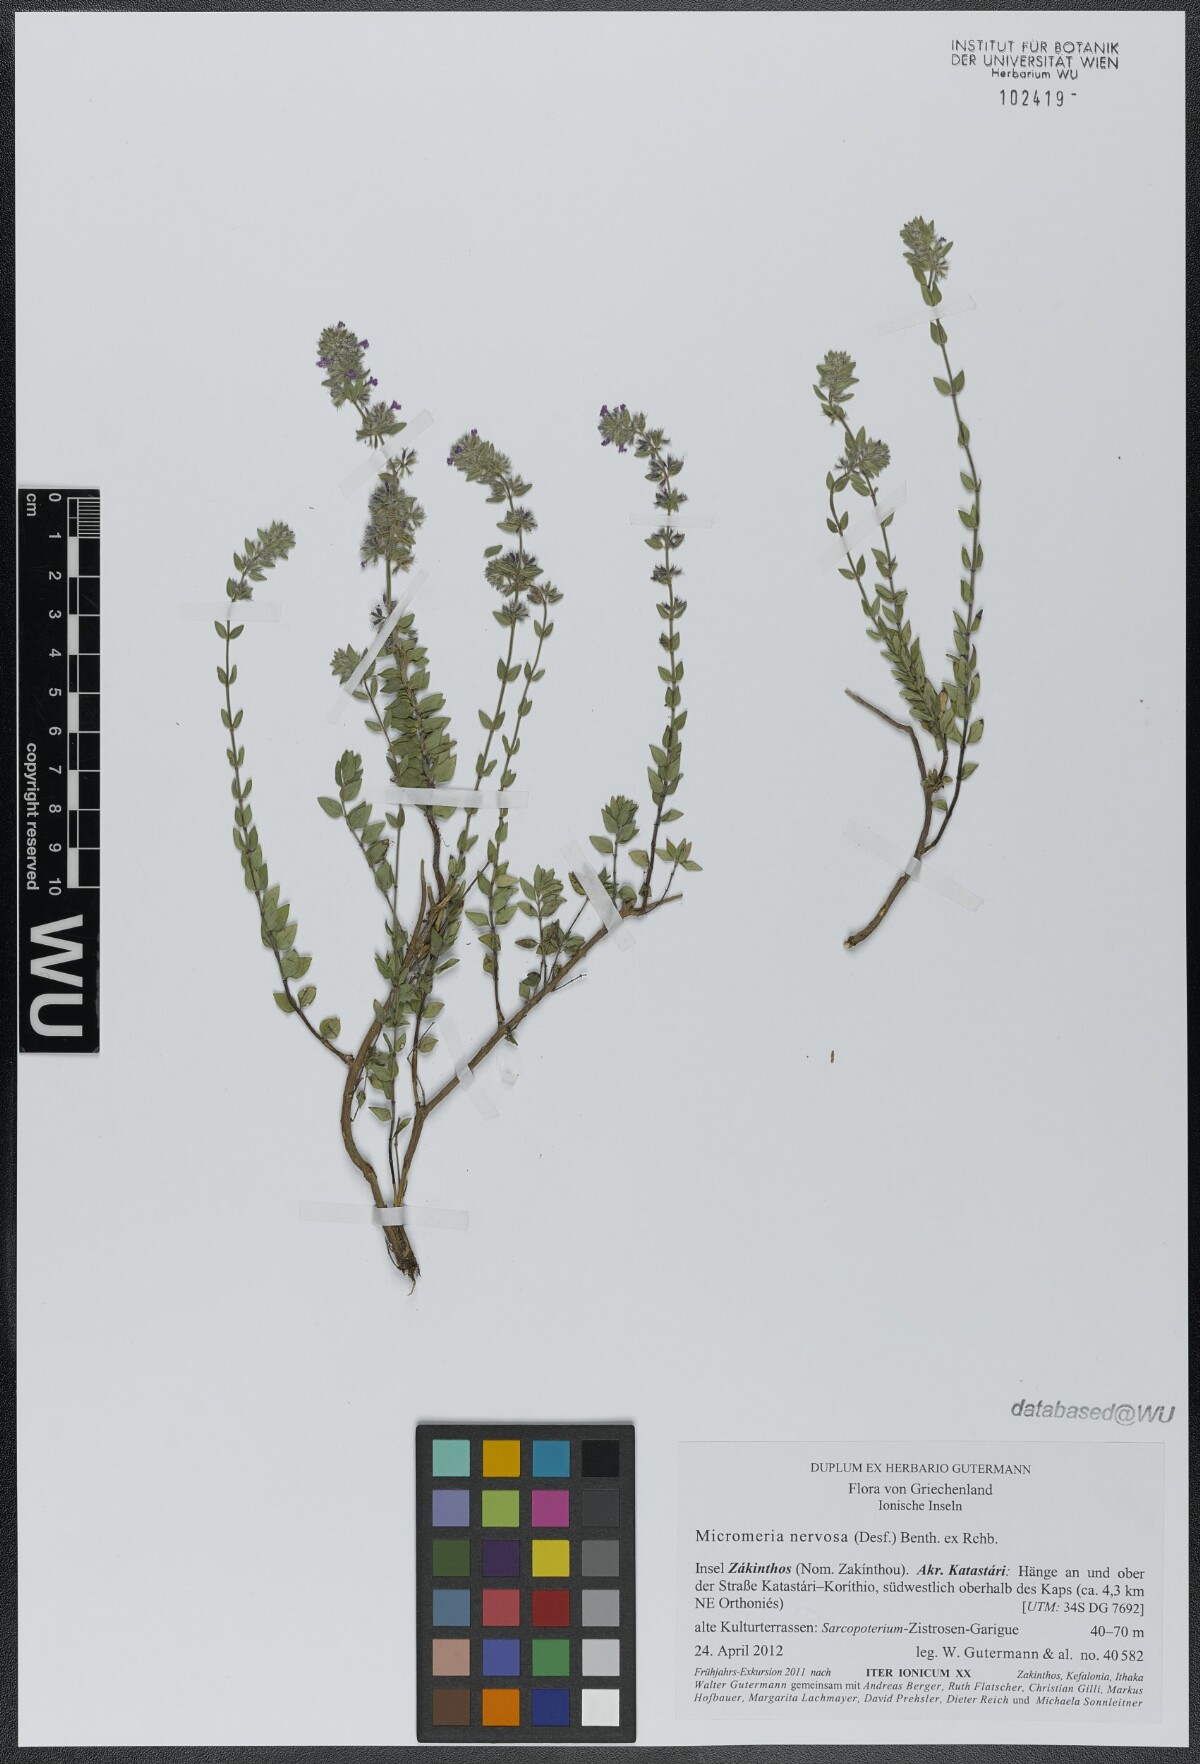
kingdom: Plantae
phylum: Tracheophyta
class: Magnoliopsida
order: Lamiales
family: Lamiaceae
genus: Micromeria
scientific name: Micromeria nervosa
